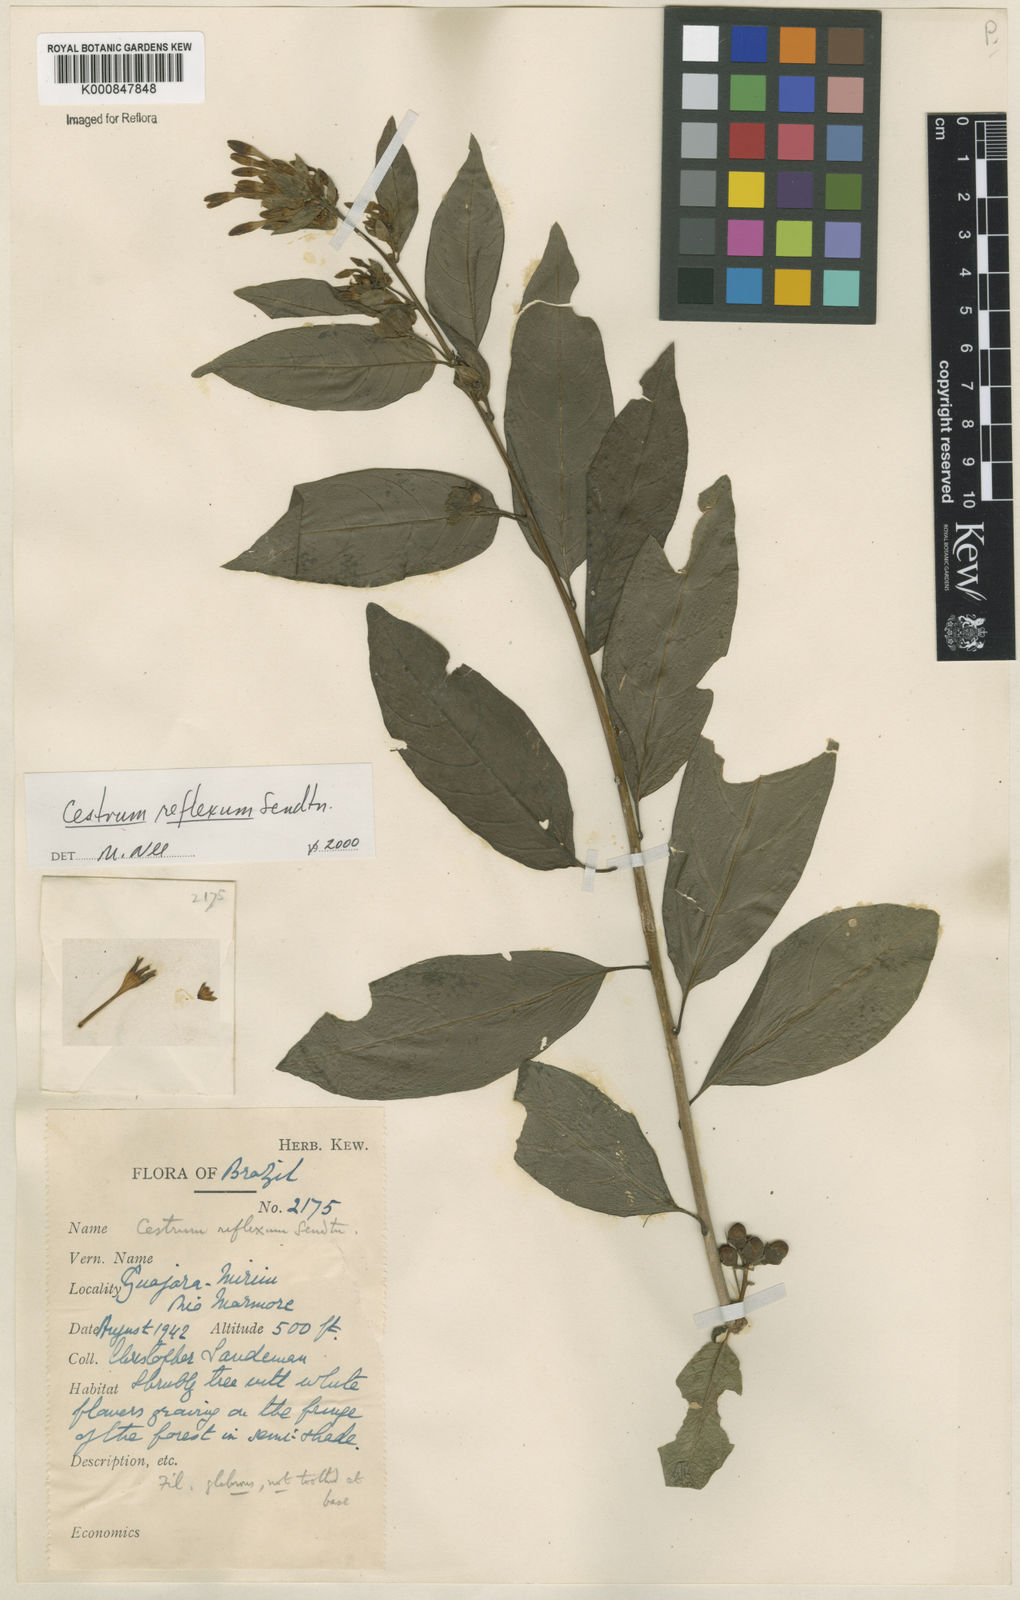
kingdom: Plantae
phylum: Tracheophyta
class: Magnoliopsida
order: Solanales
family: Solanaceae
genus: Cestrum
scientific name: Cestrum reflexum
